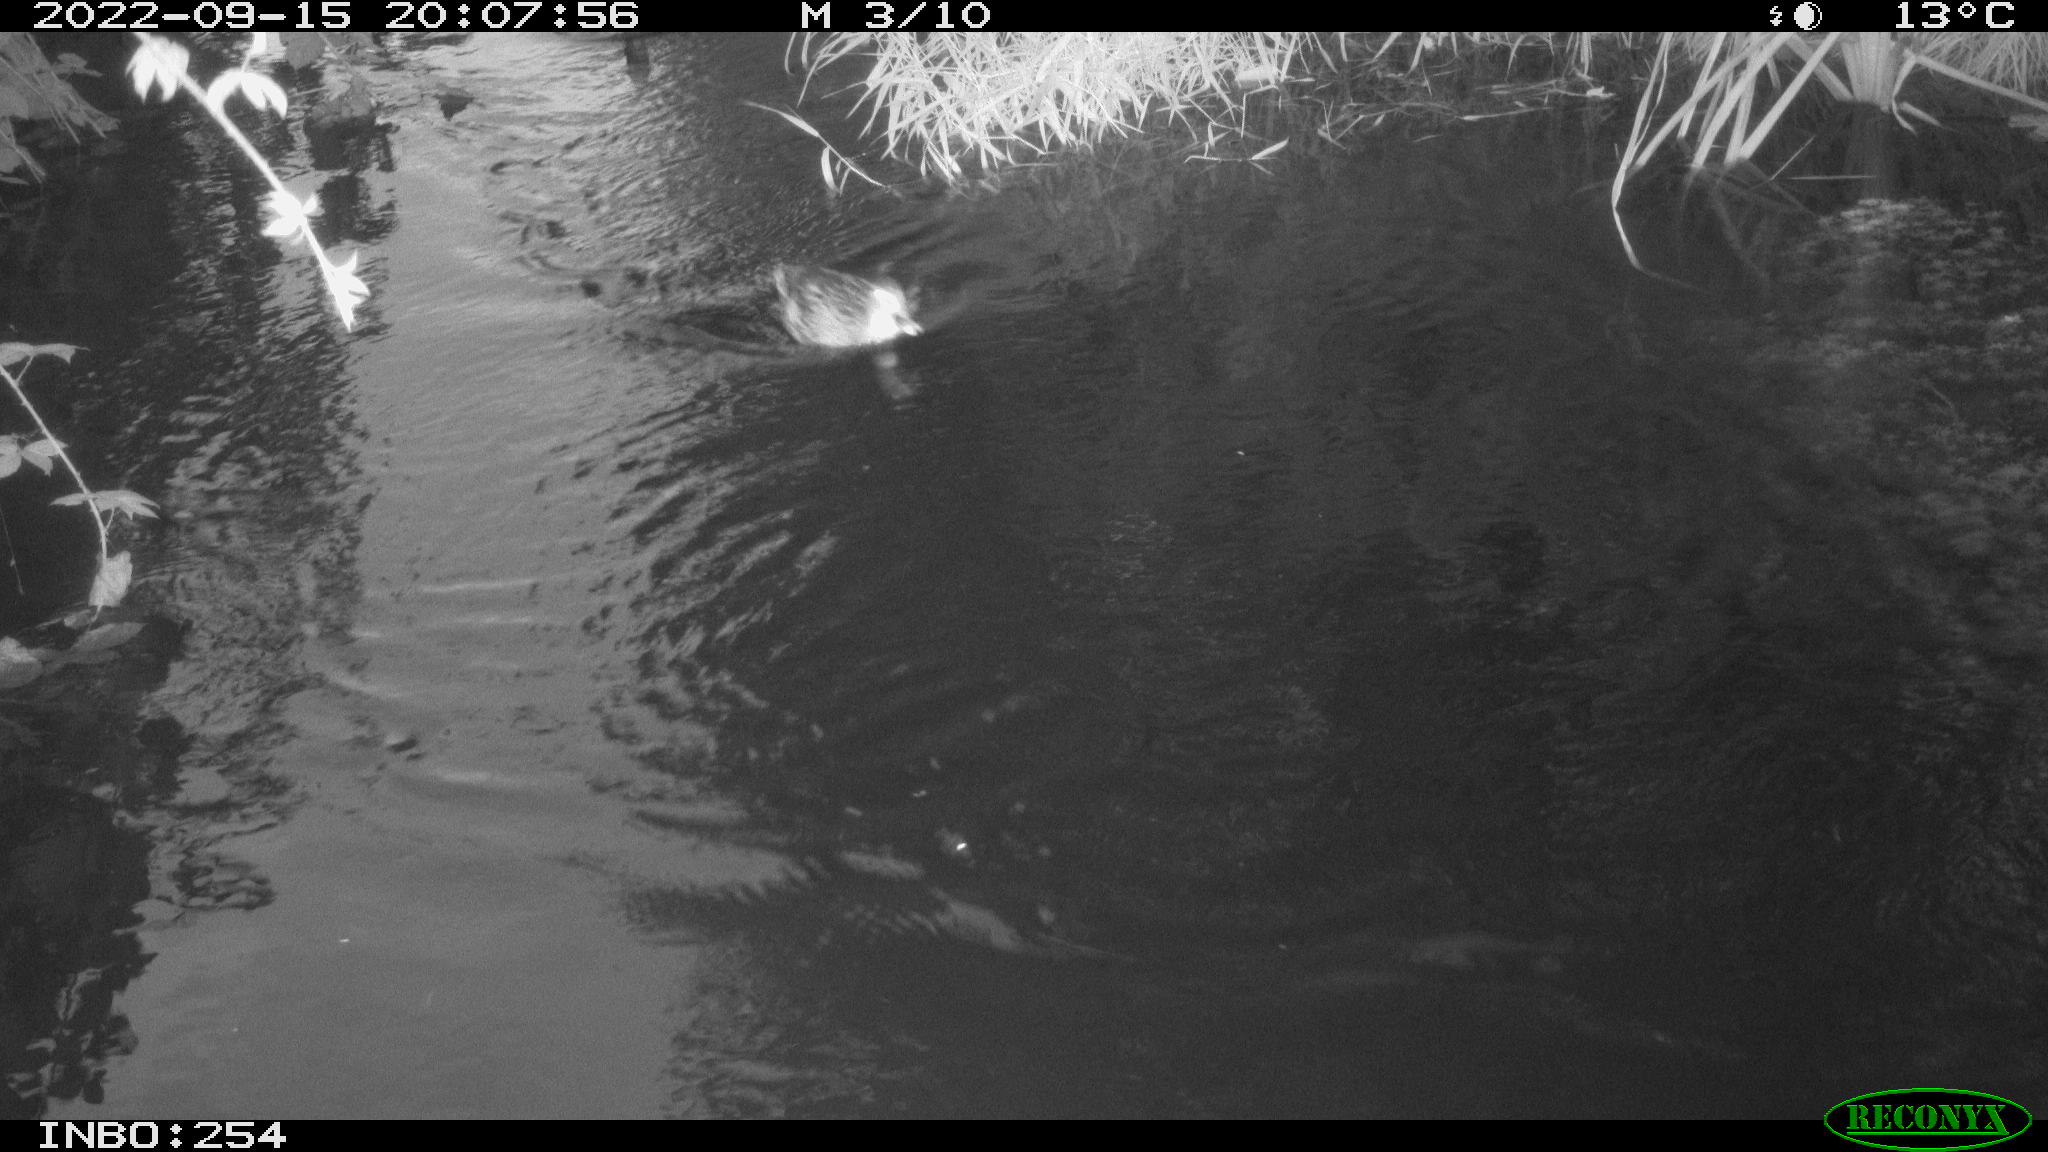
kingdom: Animalia
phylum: Chordata
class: Aves
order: Anseriformes
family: Anatidae
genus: Anas
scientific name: Anas
